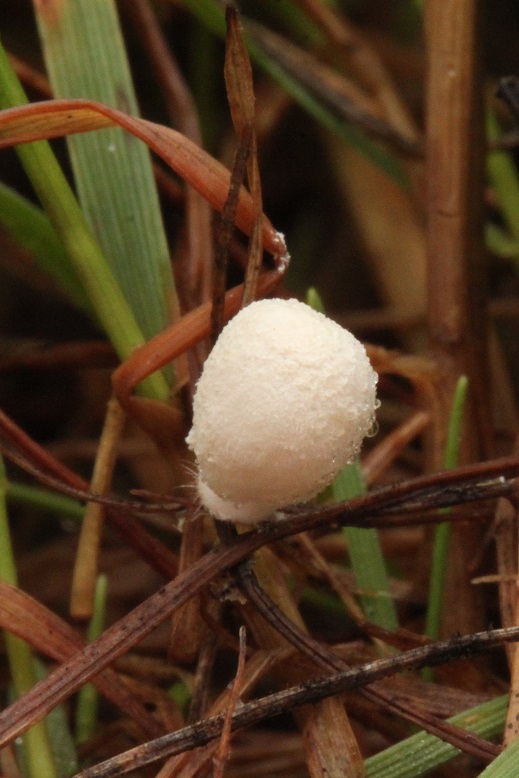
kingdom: Fungi
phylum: Basidiomycota
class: Agaricomycetes
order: Agaricales
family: Psathyrellaceae
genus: Coprinopsis
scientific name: Coprinopsis urticicola
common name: urte-blækhat
